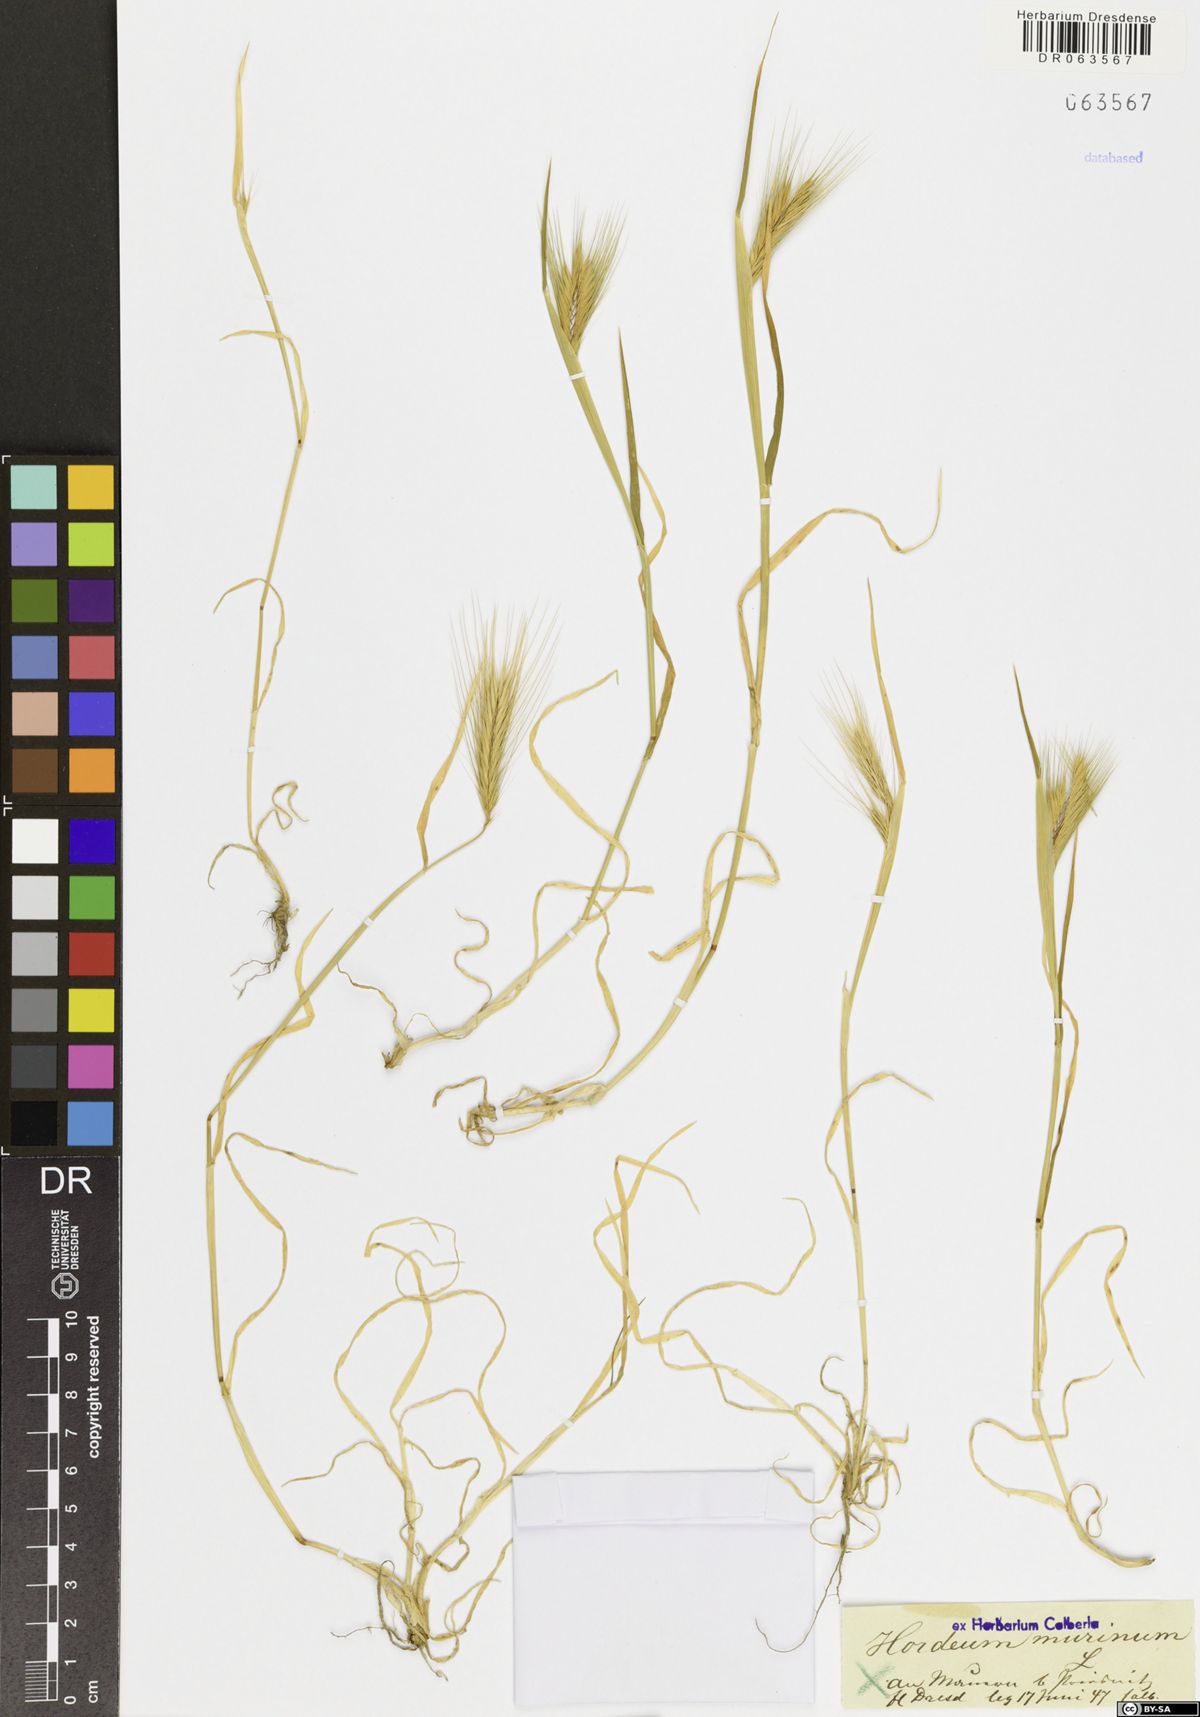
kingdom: Plantae
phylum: Tracheophyta
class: Liliopsida
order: Poales
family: Poaceae
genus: Hordeum
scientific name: Hordeum murinum
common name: Wall barley
